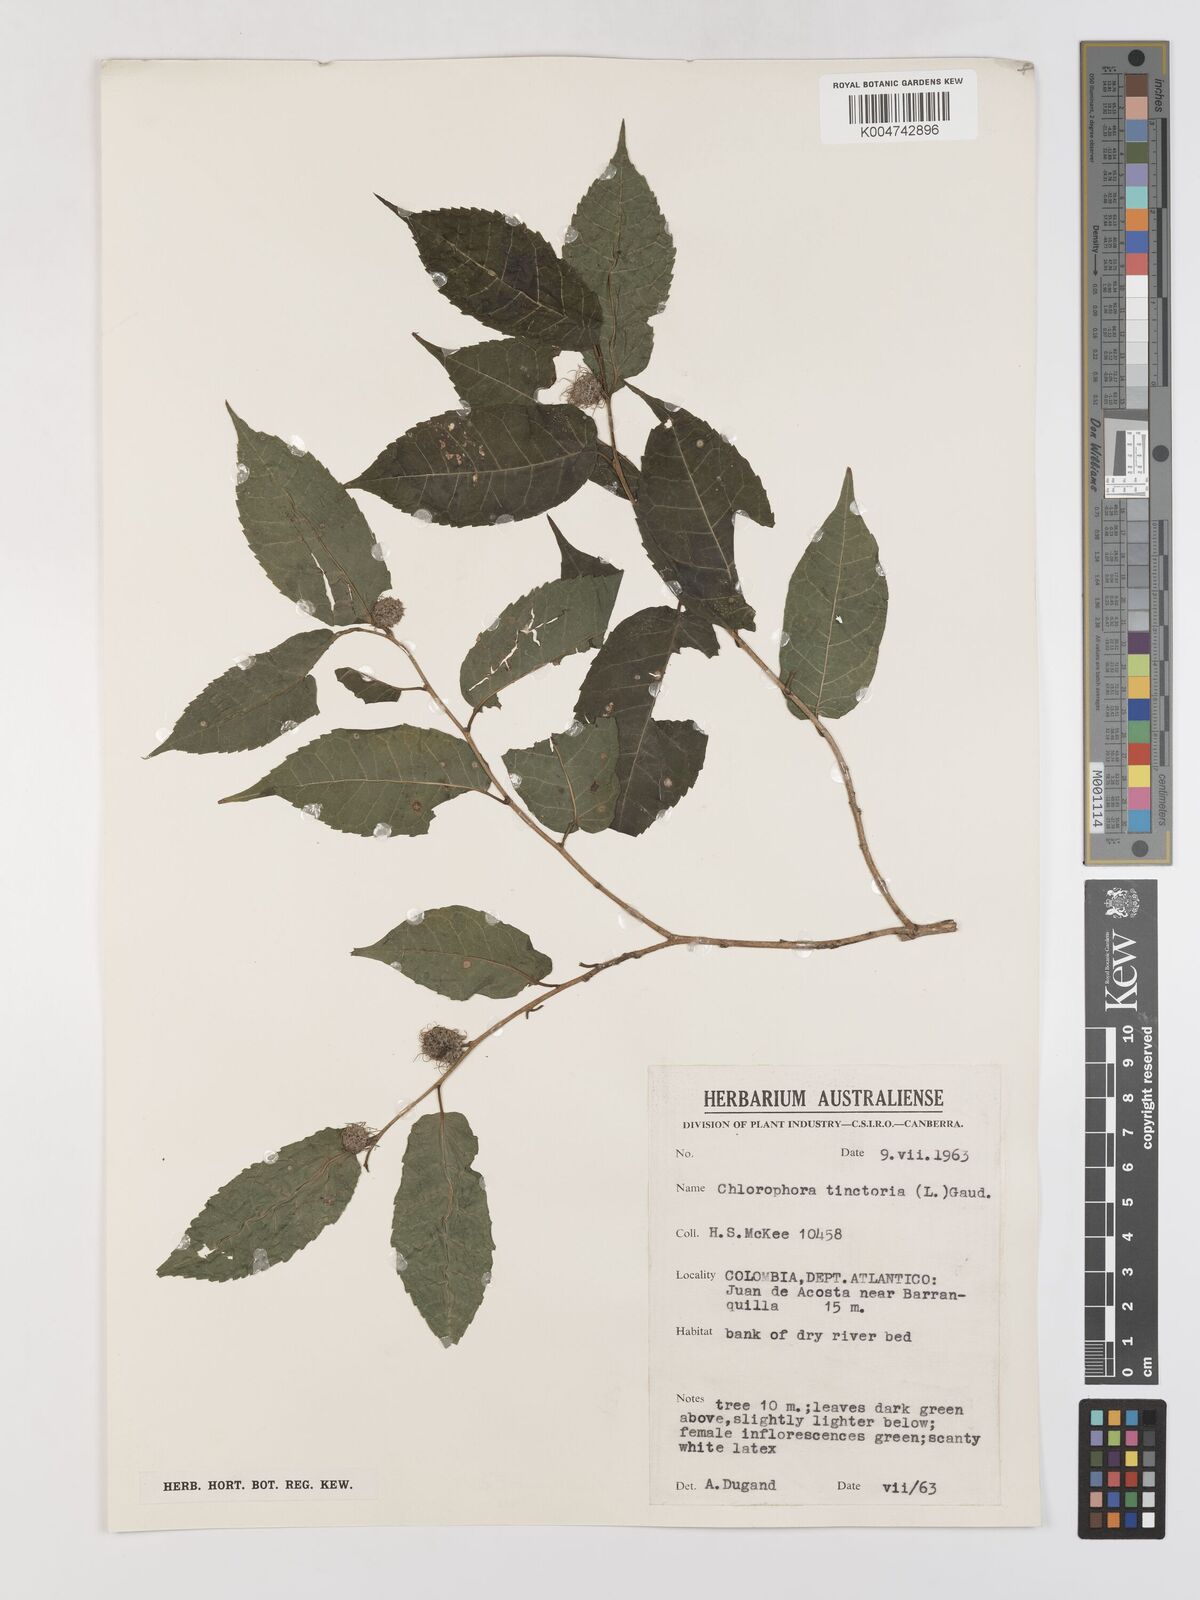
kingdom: Plantae
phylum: Tracheophyta
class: Magnoliopsida
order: Rosales
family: Moraceae
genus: Maclura
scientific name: Maclura tinctoria
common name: Old fustic
